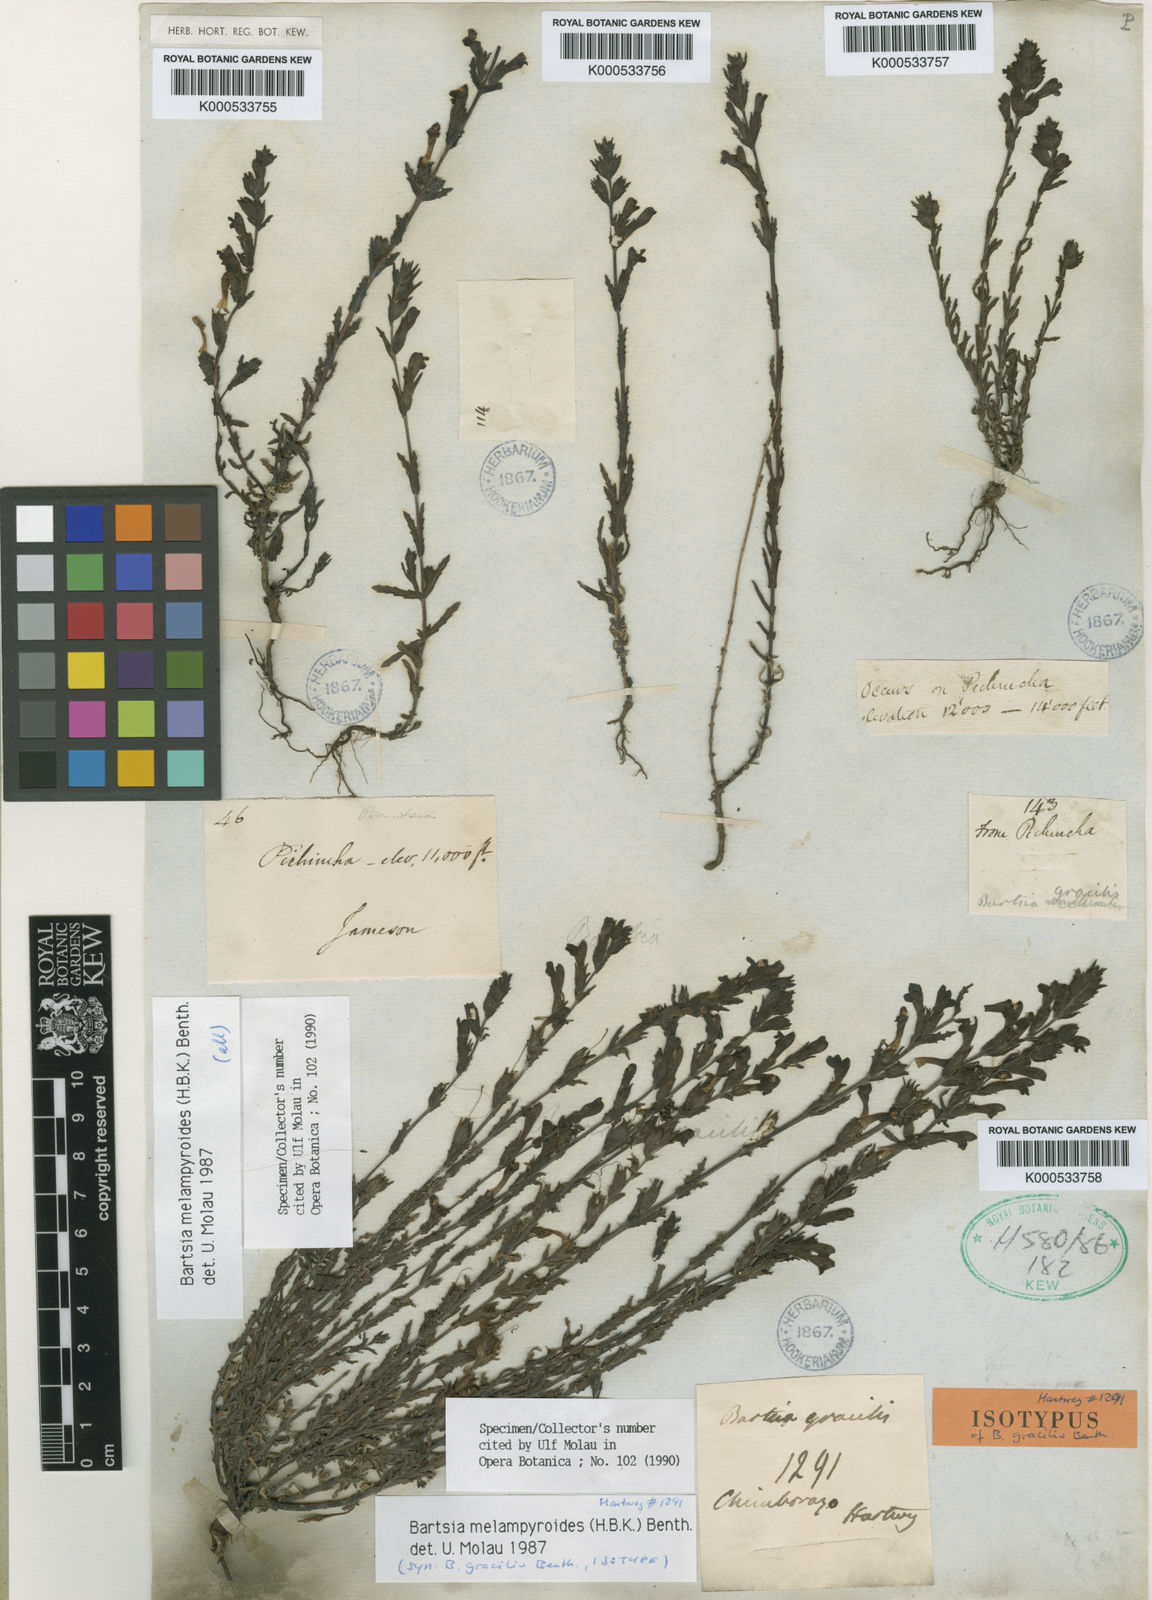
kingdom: Plantae
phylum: Tracheophyta
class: Magnoliopsida
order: Lamiales
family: Orobanchaceae
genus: Neobartsia
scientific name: Neobartsia melampyroides
